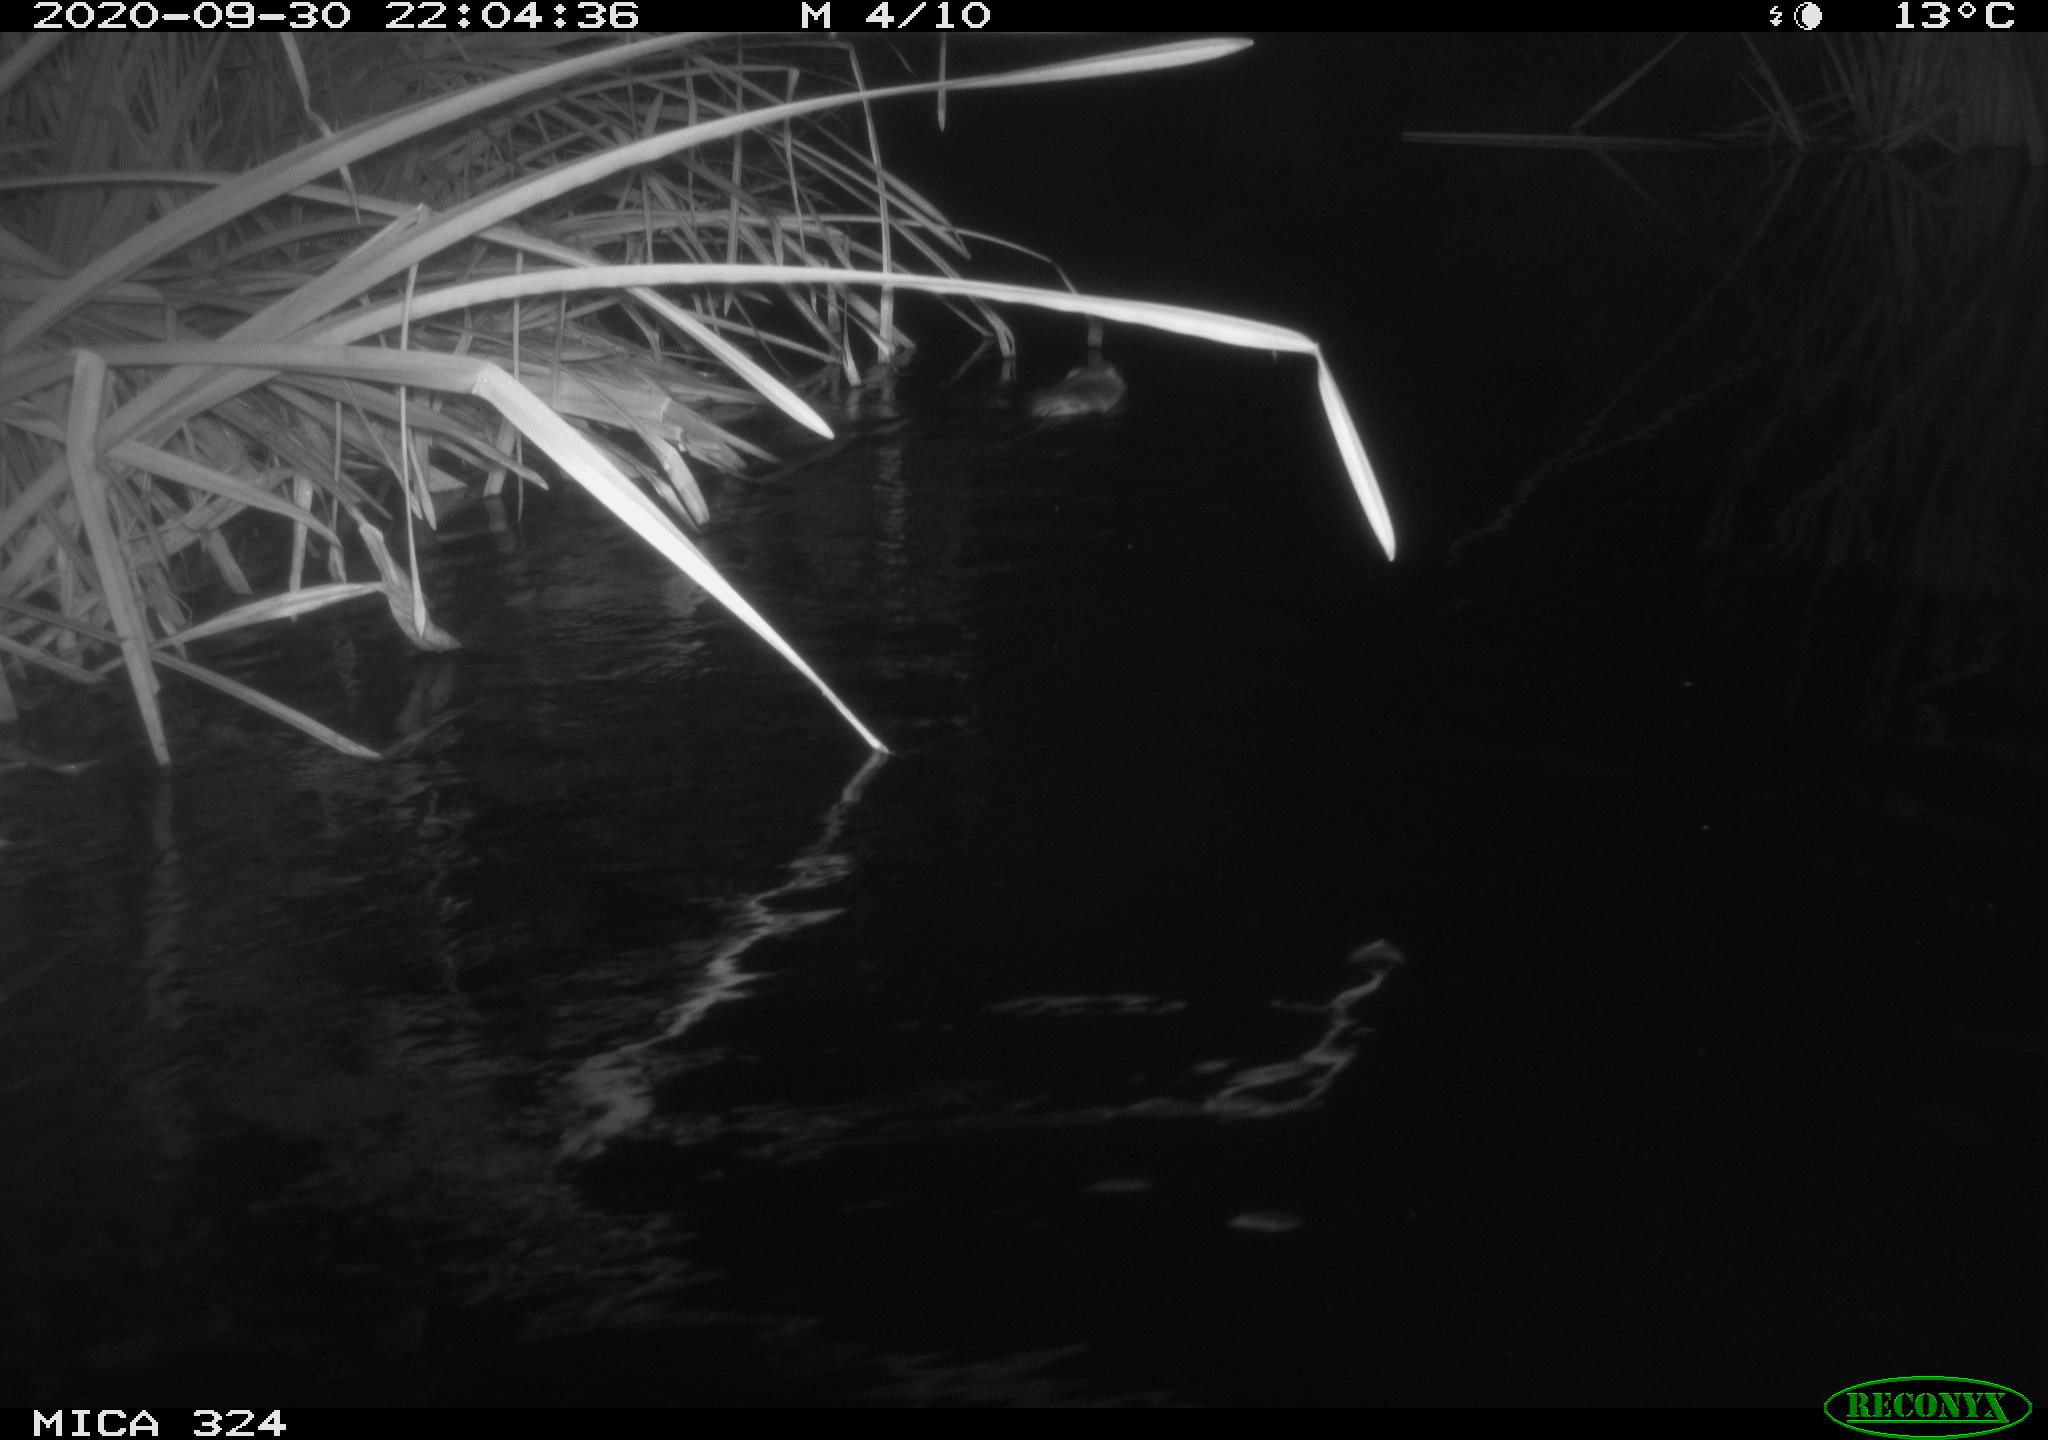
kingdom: Animalia
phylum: Chordata
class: Mammalia
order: Rodentia
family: Cricetidae
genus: Ondatra
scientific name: Ondatra zibethicus
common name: Muskrat
